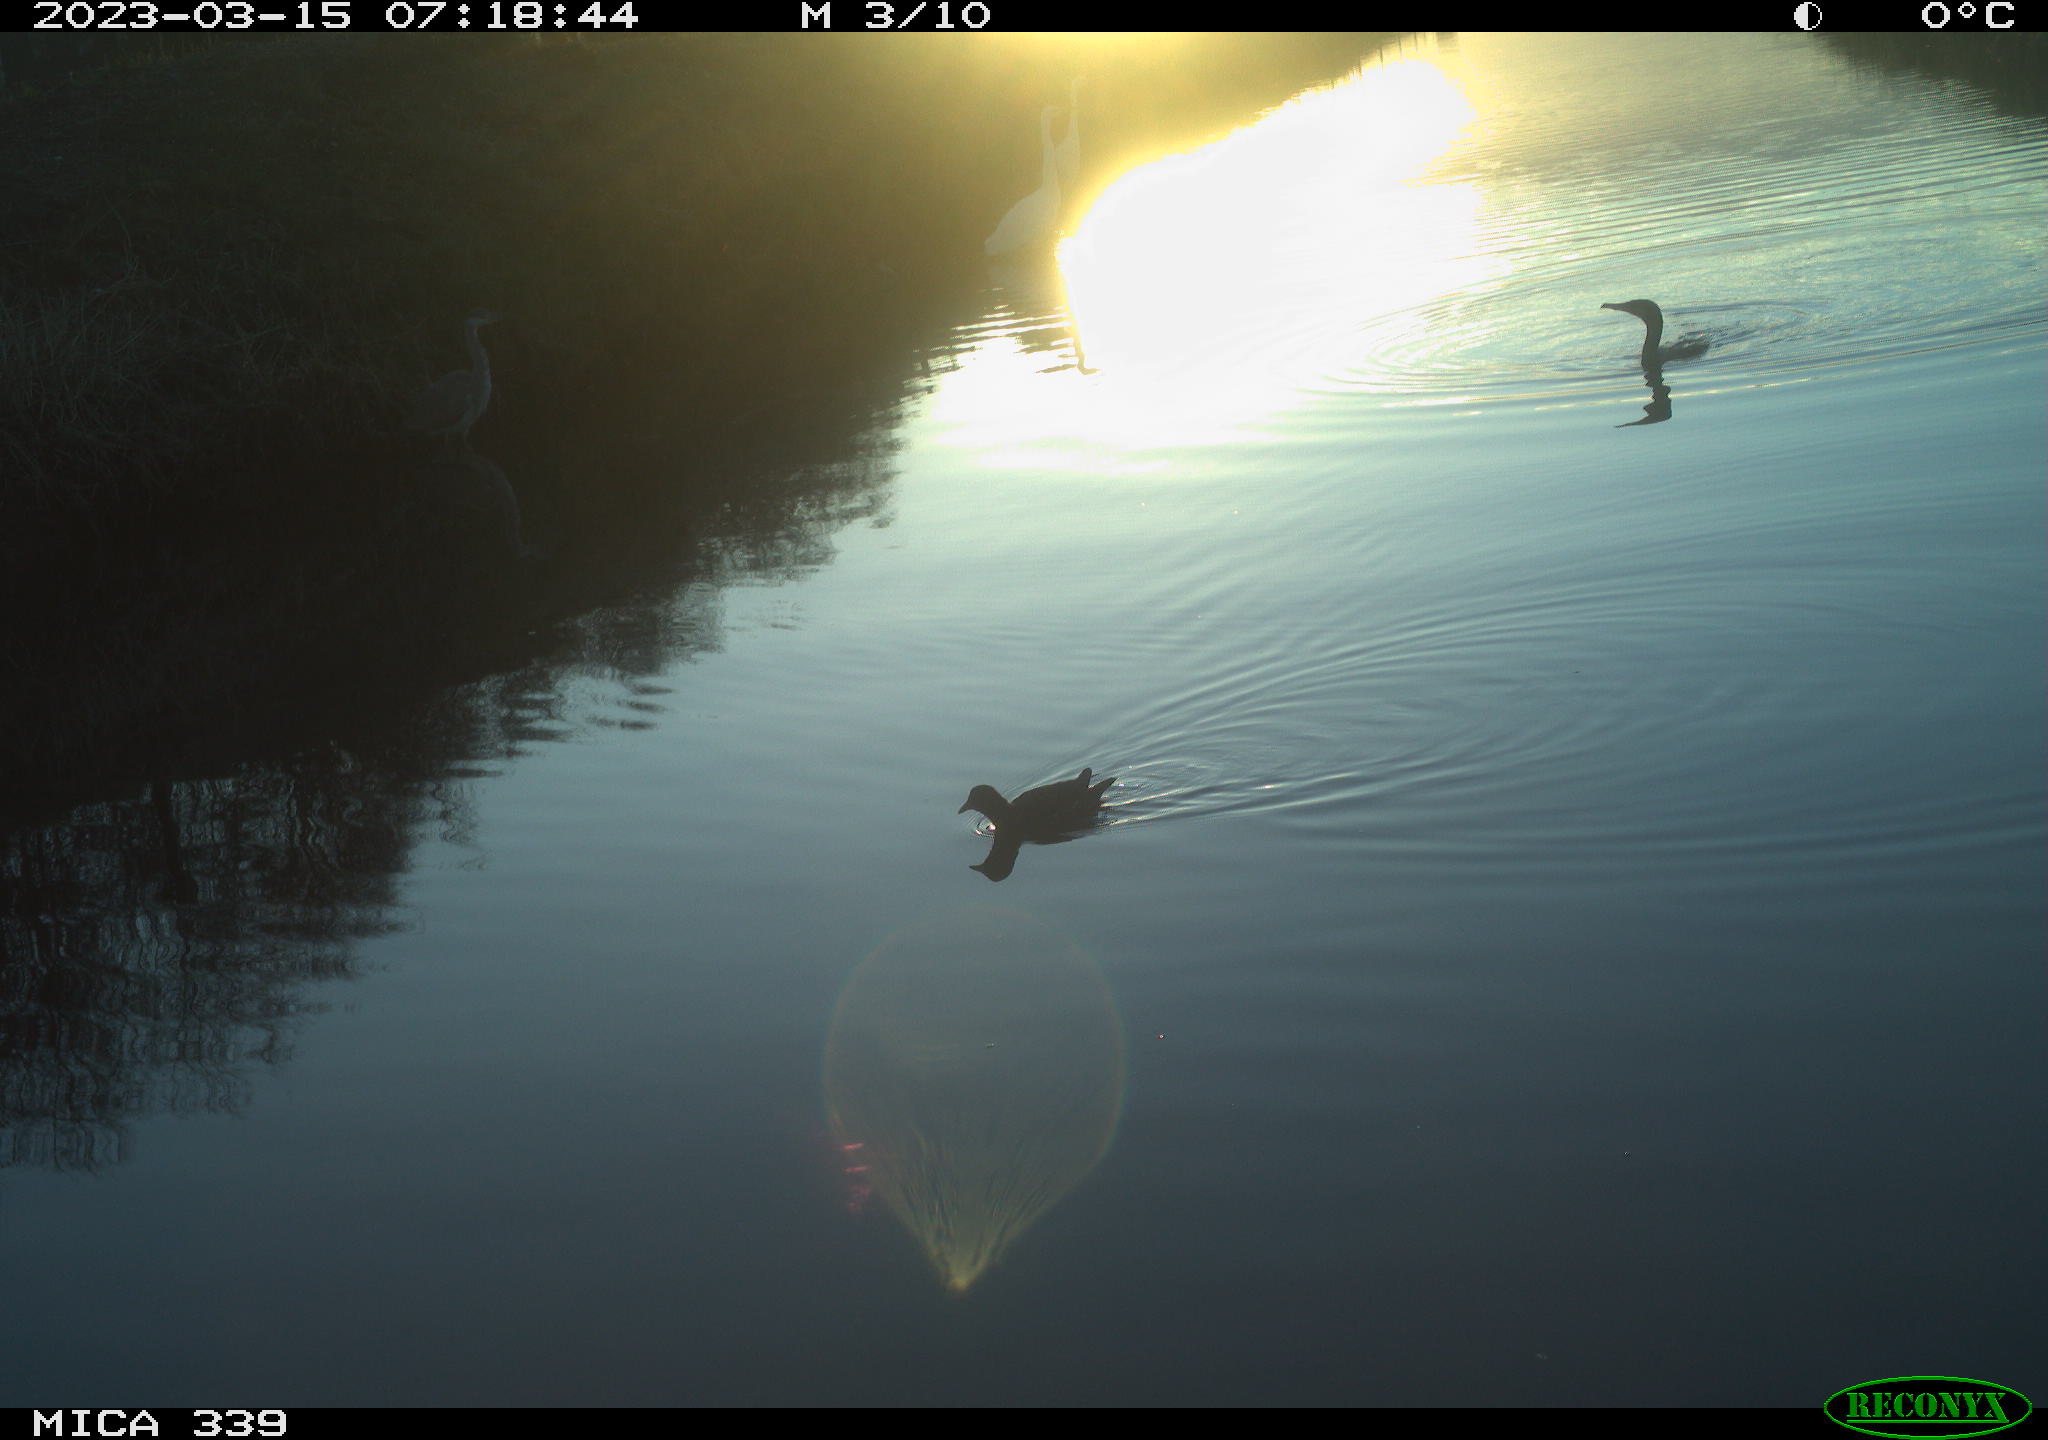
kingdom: Animalia
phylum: Chordata
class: Aves
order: Pelecaniformes
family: Ardeidae
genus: Ardea
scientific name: Ardea cinerea
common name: Grey heron
